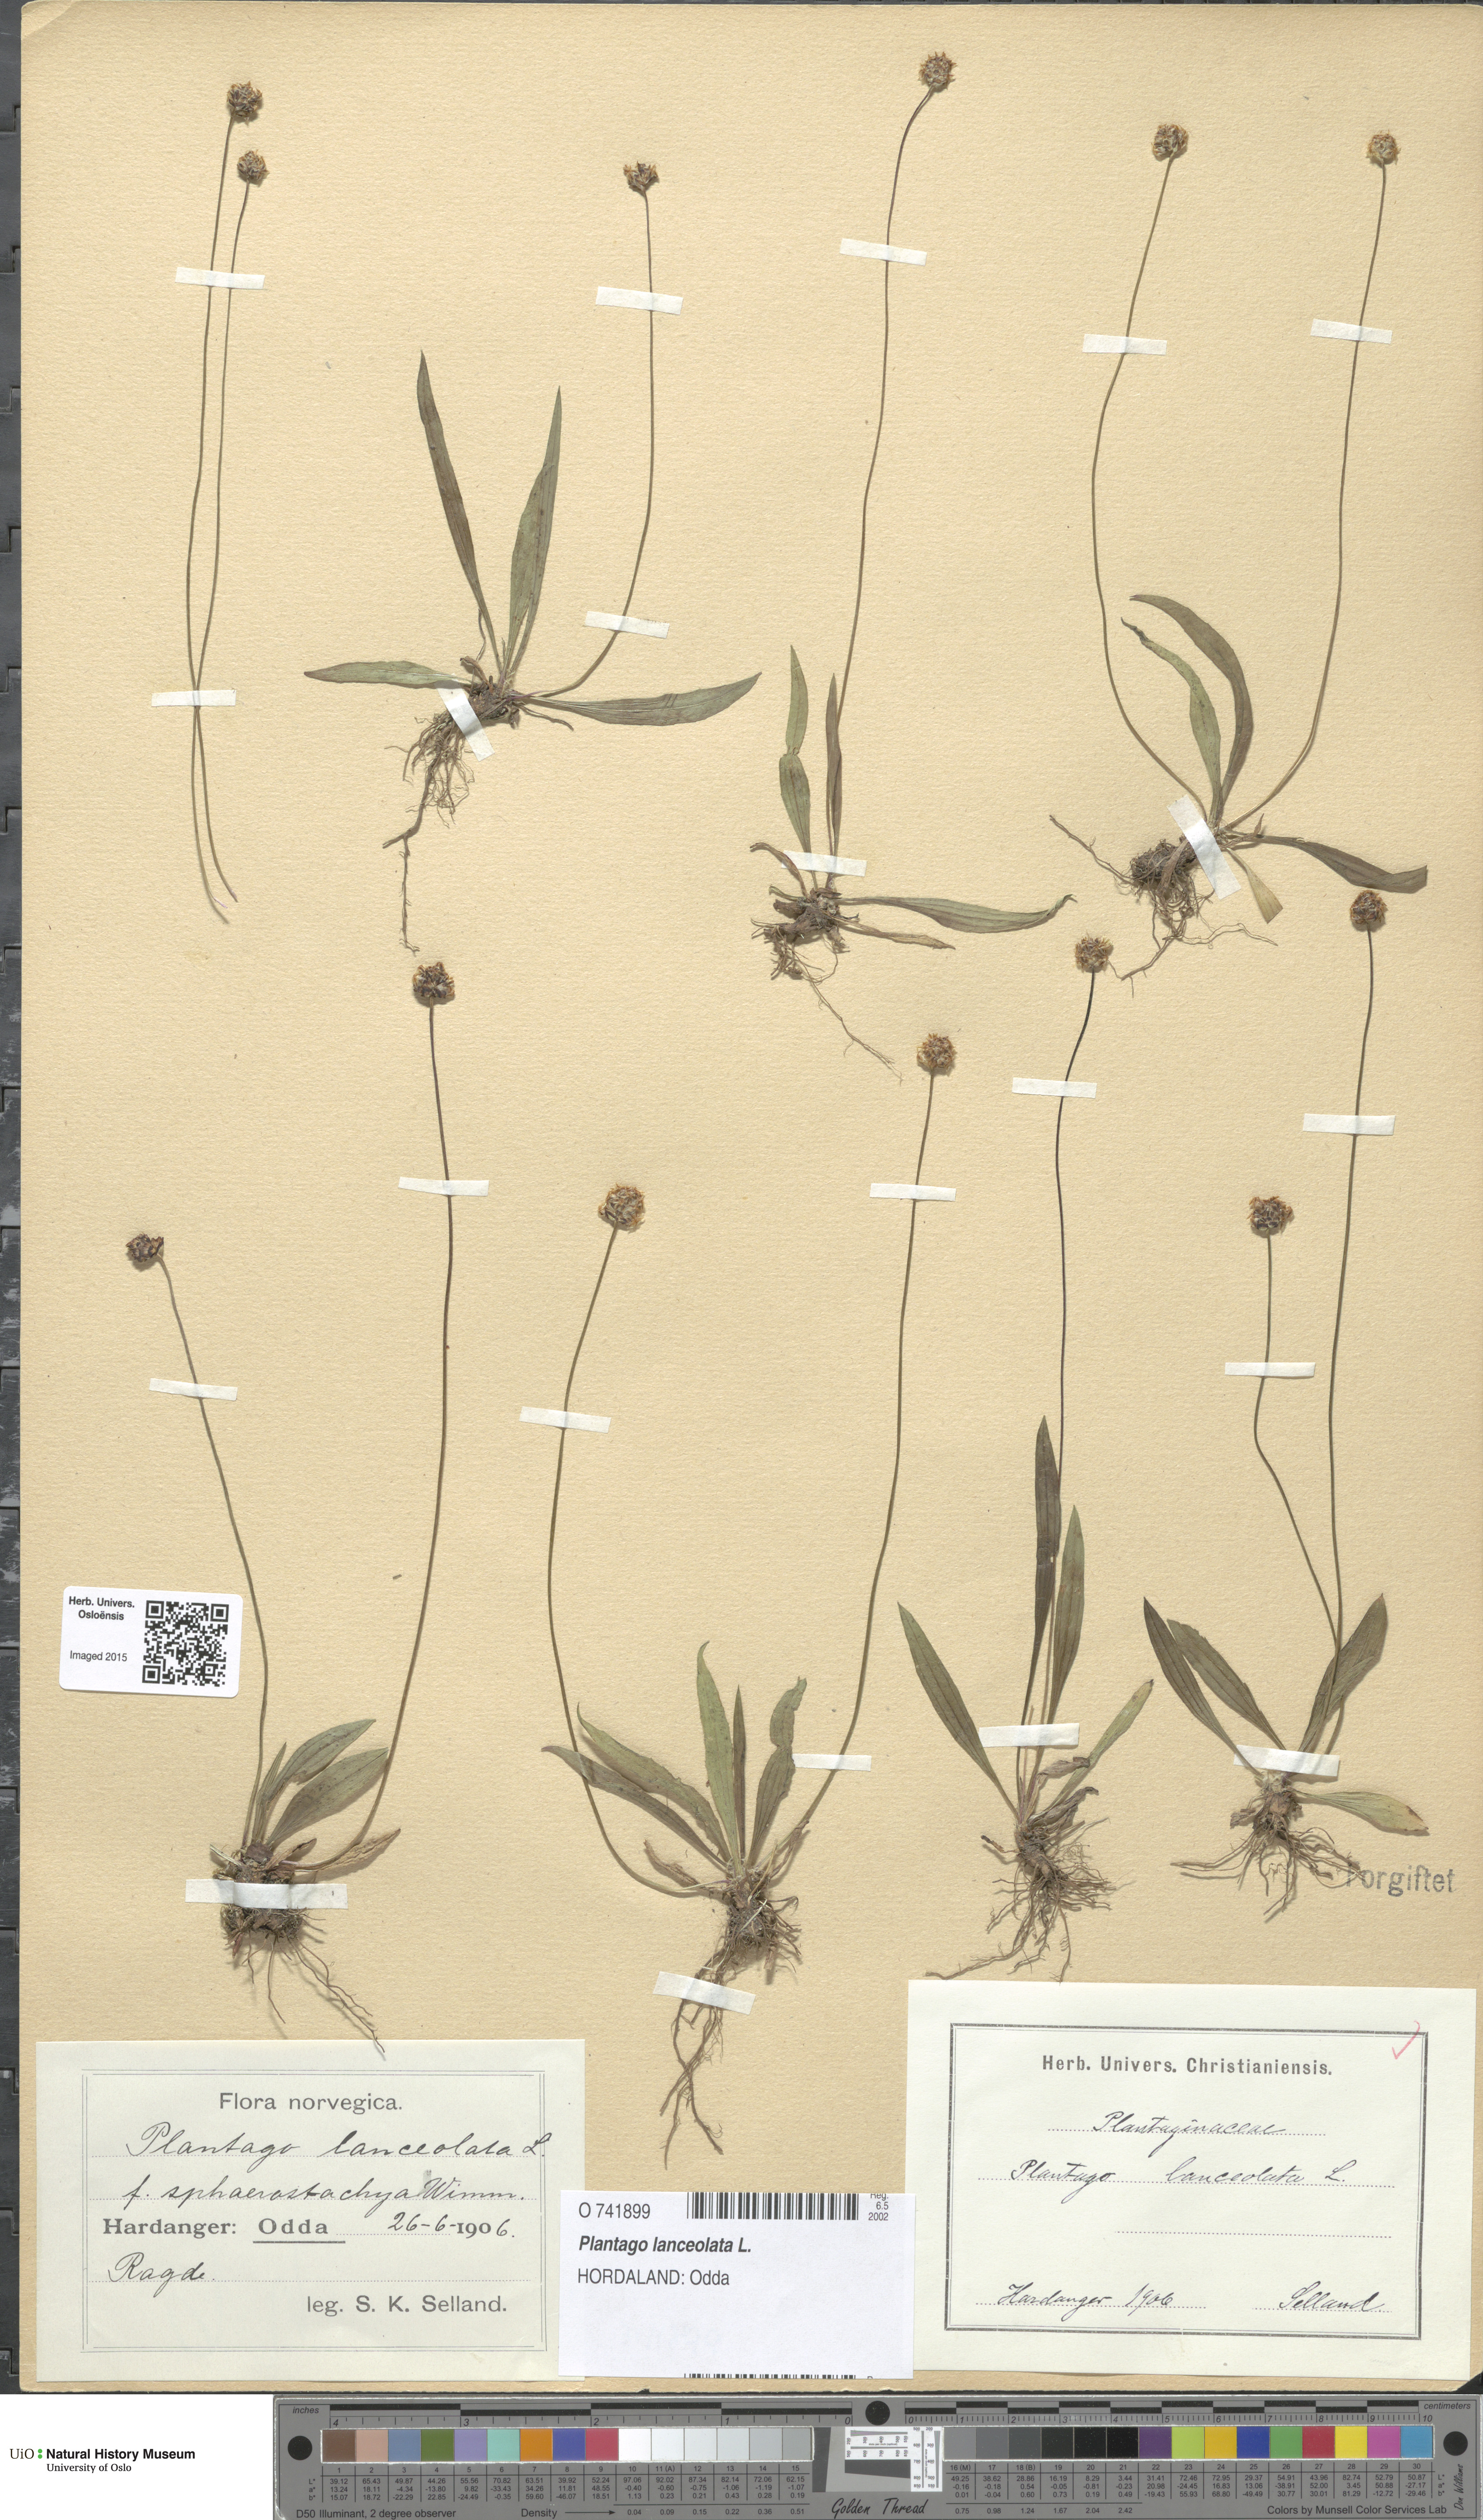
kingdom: Plantae
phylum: Tracheophyta
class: Magnoliopsida
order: Lamiales
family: Plantaginaceae
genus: Plantago
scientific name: Plantago lanceolata
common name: Ribwort plantain
